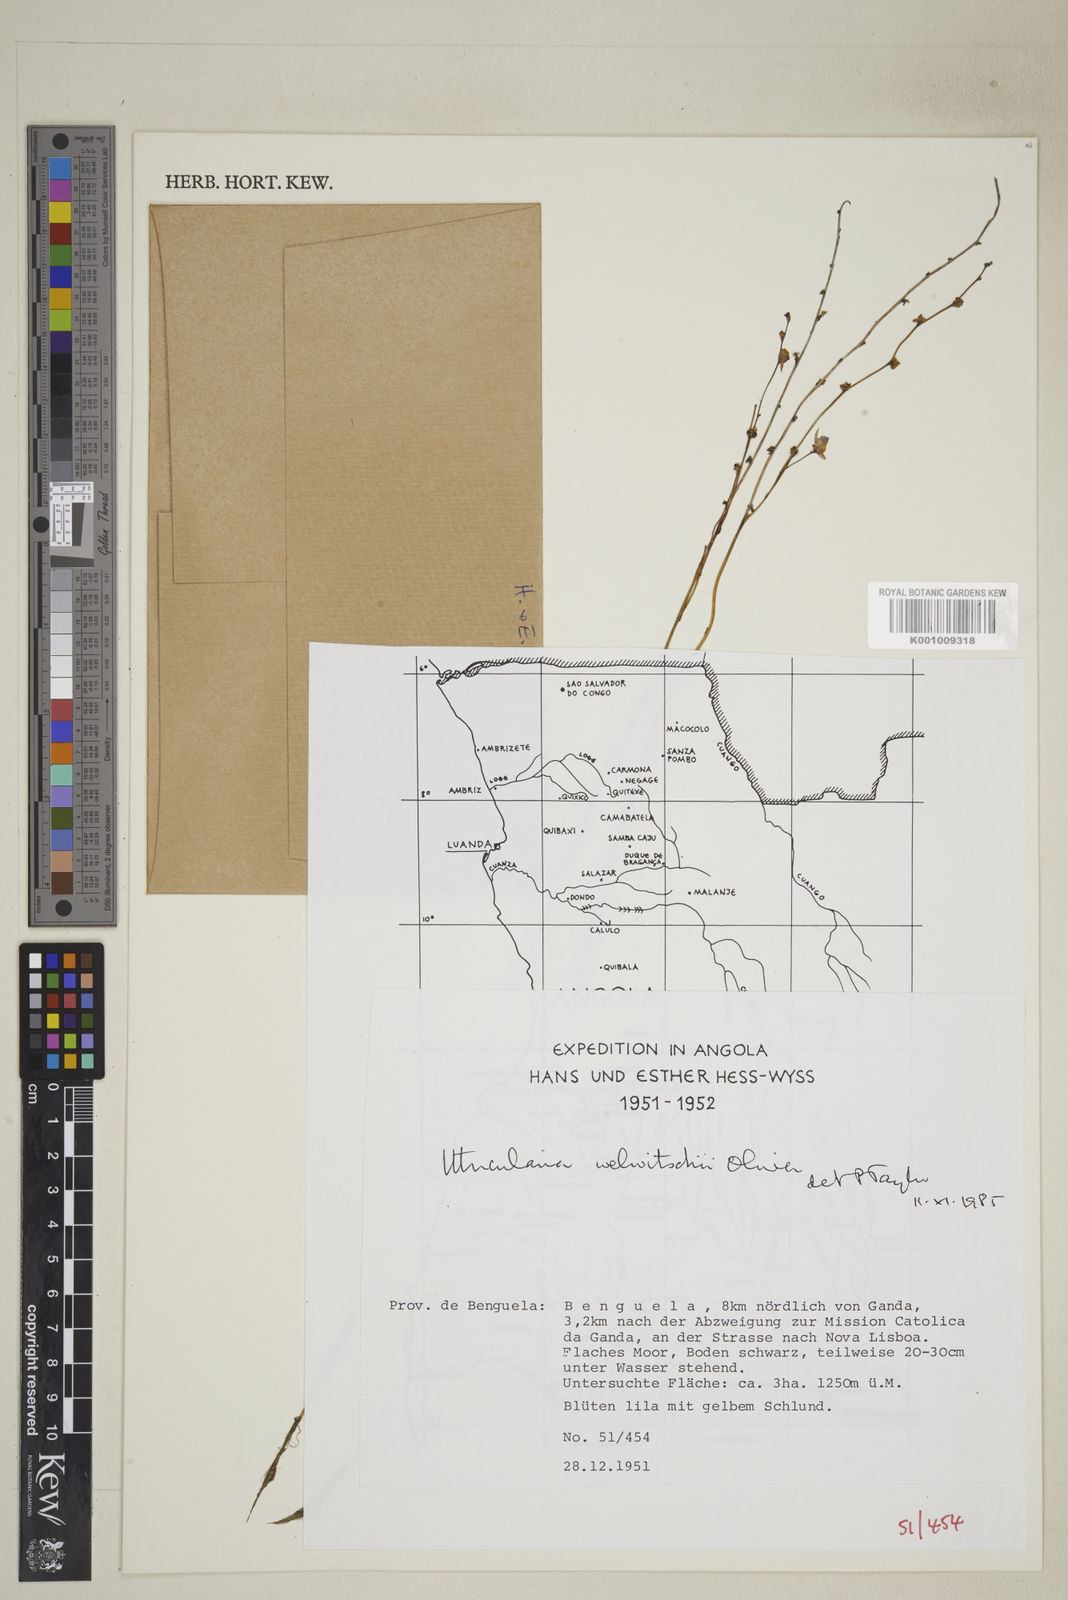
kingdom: Plantae
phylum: Tracheophyta
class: Magnoliopsida
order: Lamiales
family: Lentibulariaceae
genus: Utricularia
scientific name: Utricularia welwitschii
